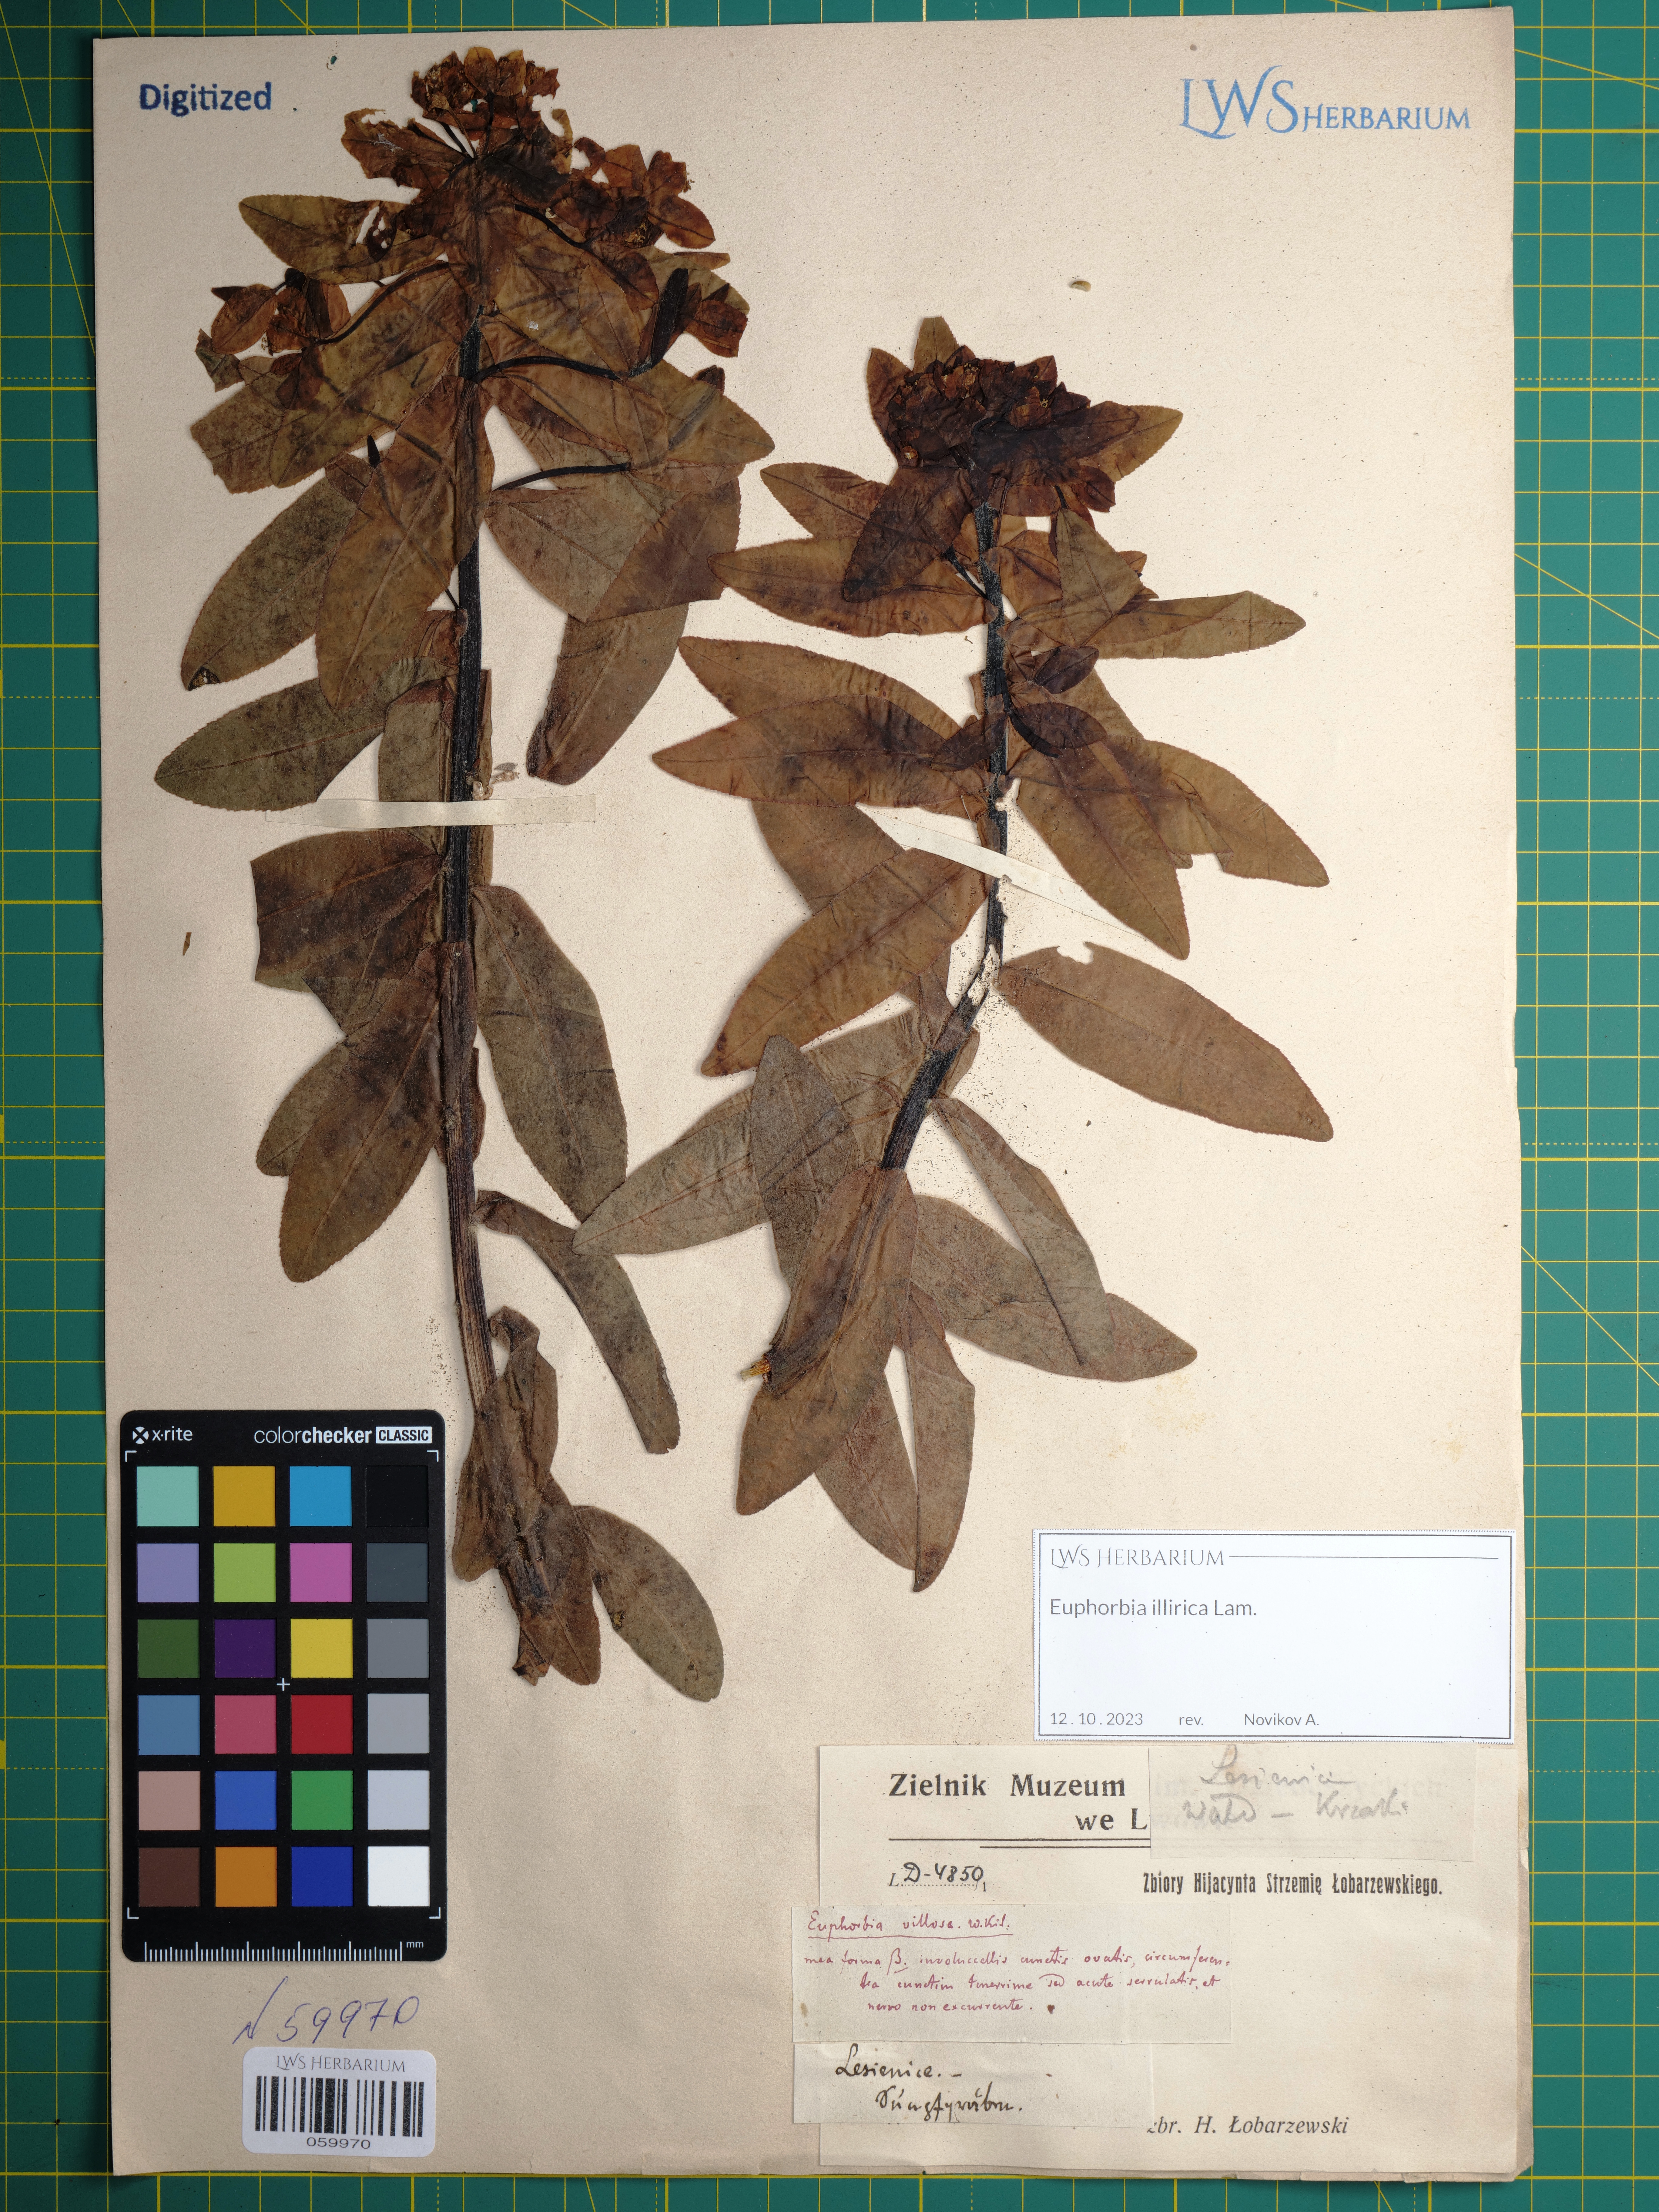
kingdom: Plantae
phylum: Tracheophyta
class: Magnoliopsida
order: Malpighiales
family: Euphorbiaceae
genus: Euphorbia
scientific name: Euphorbia illirica
